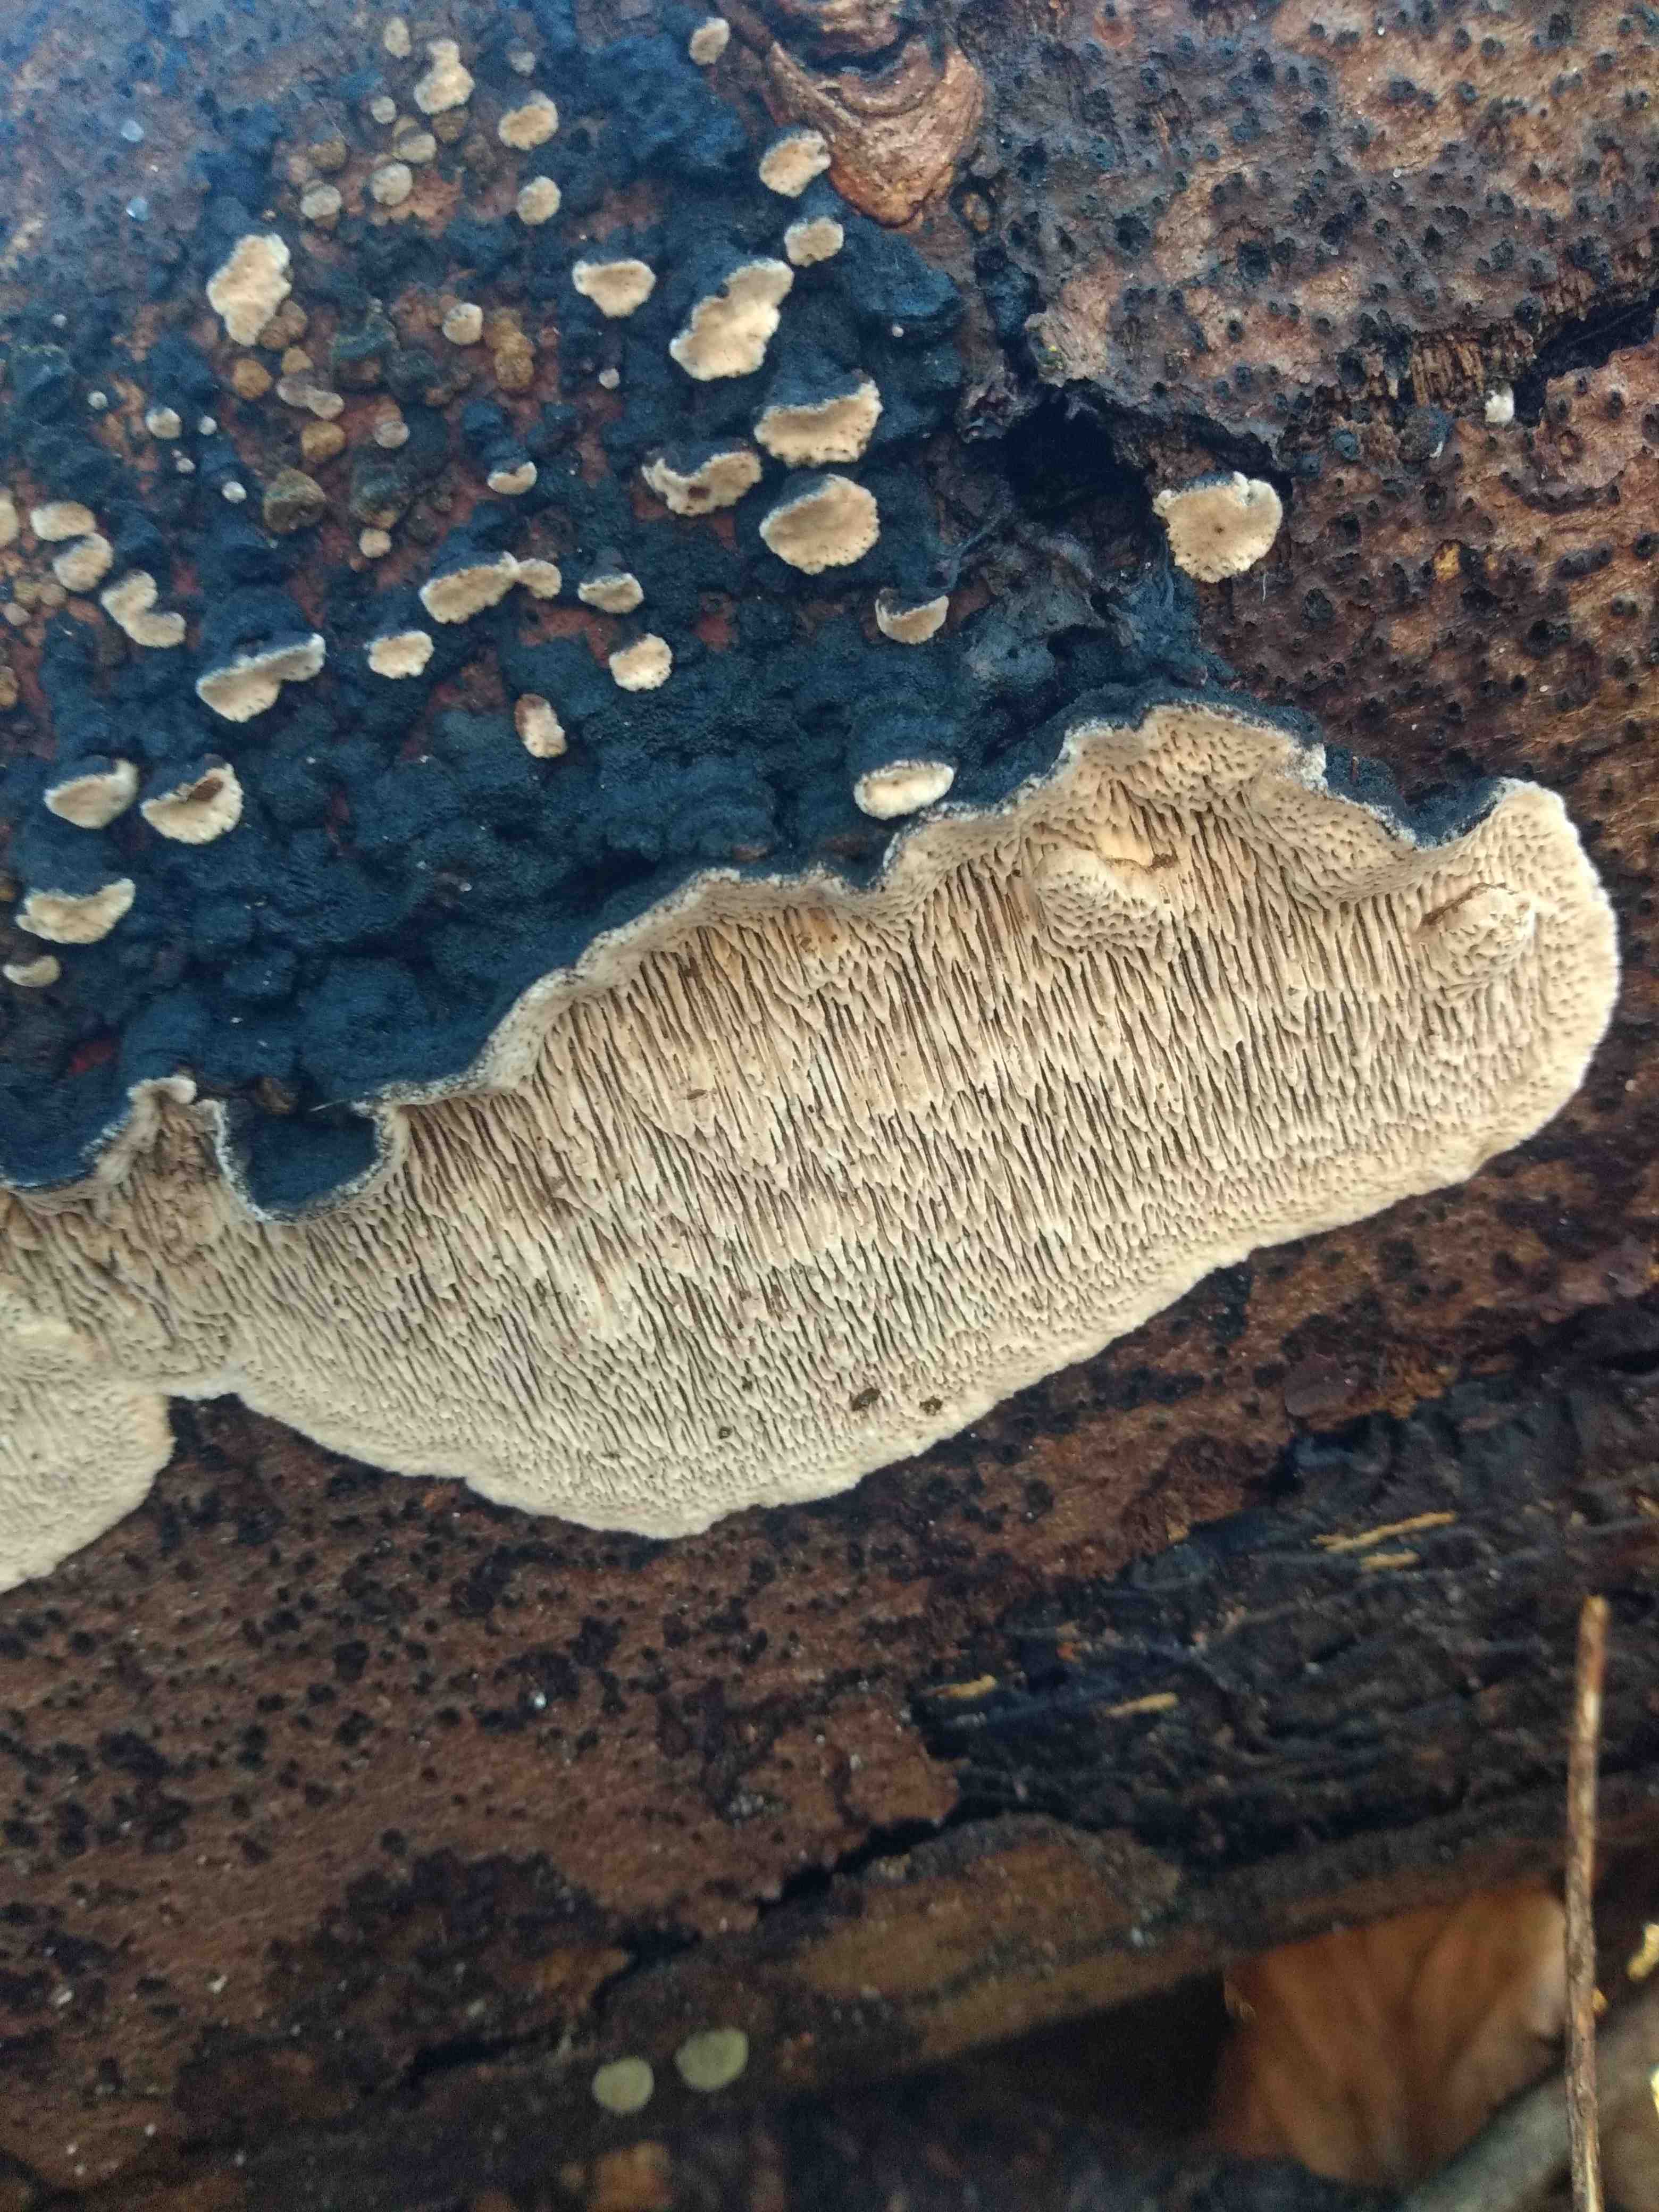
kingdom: Fungi
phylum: Basidiomycota
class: Agaricomycetes
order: Polyporales
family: Polyporaceae
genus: Podofomes
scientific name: Podofomes mollis
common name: blød begporesvamp
